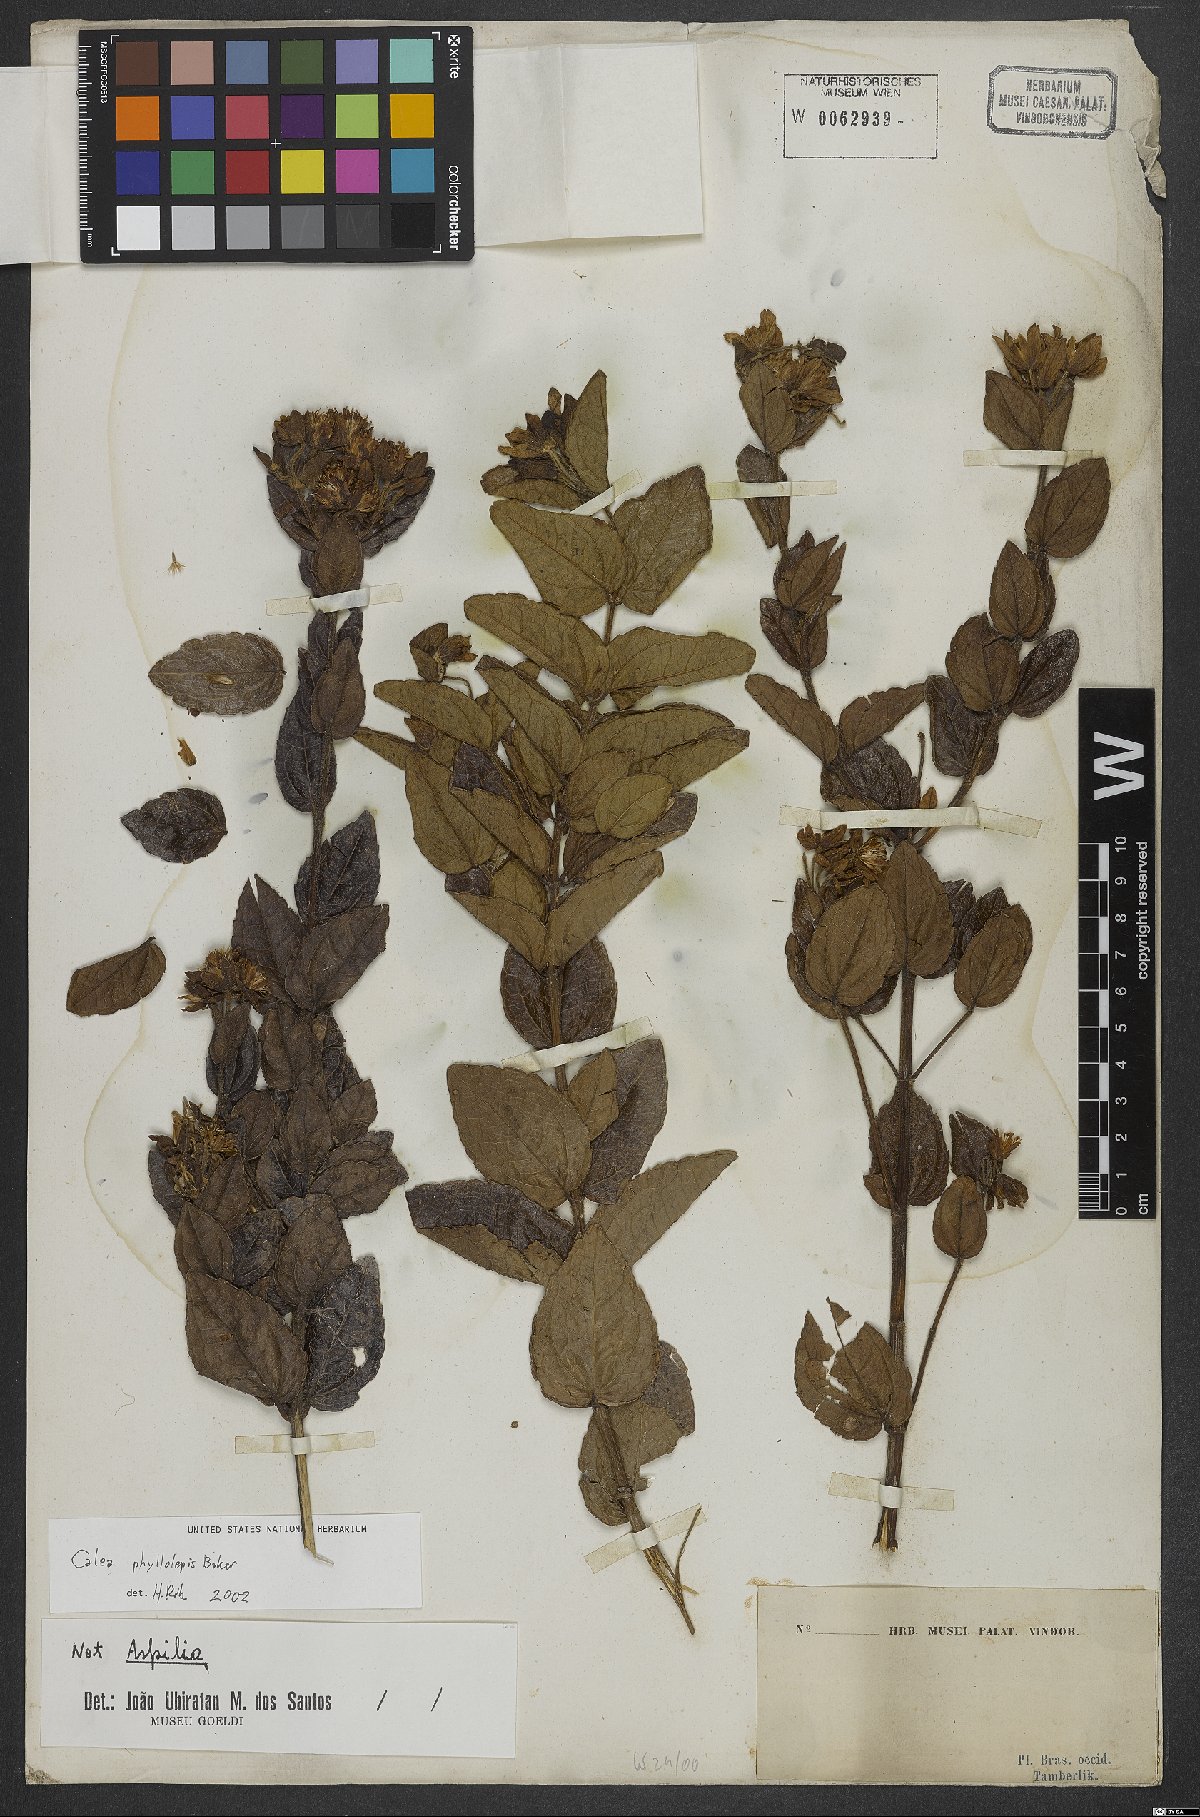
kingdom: Plantae
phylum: Tracheophyta
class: Magnoliopsida
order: Asterales
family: Asteraceae
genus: Calea
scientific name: Calea phyllolepis
